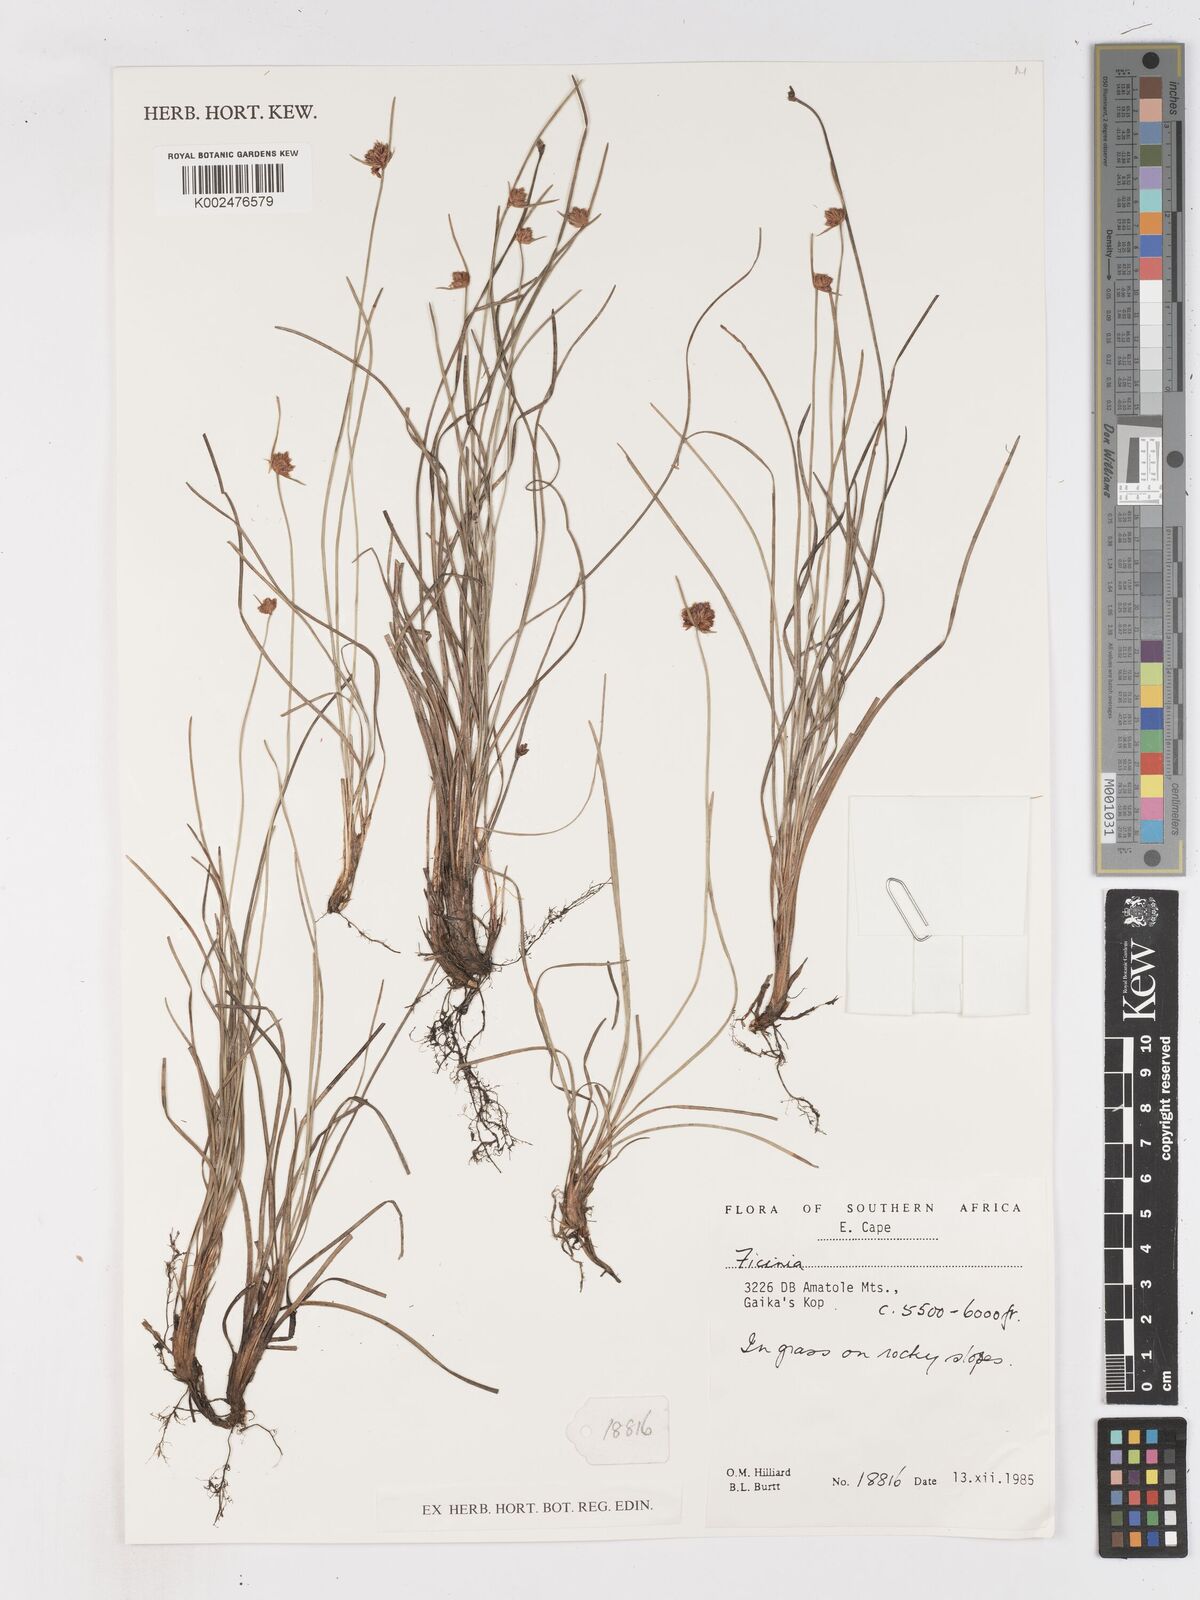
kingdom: Plantae
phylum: Tracheophyta
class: Liliopsida
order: Poales
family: Cyperaceae
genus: Ficinia
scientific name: Ficinia
